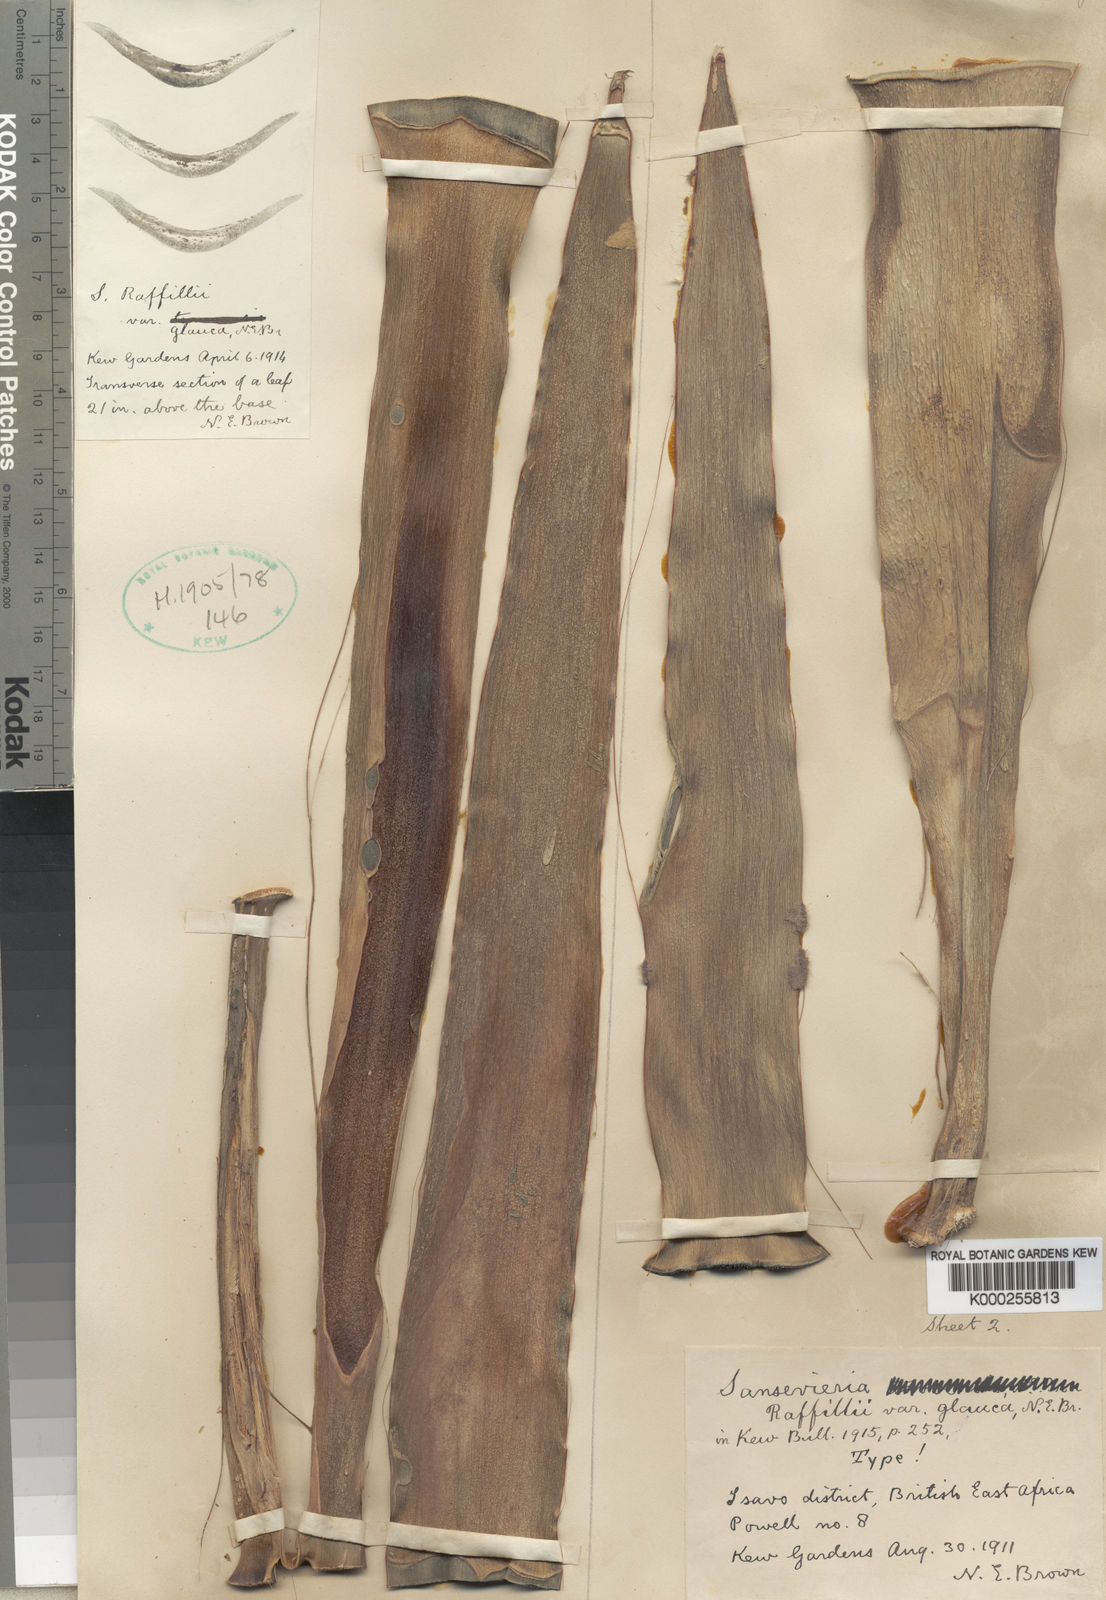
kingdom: Plantae
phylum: Tracheophyta
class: Liliopsida
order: Asparagales
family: Asparagaceae
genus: Dracaena
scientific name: Dracaena raffillii
